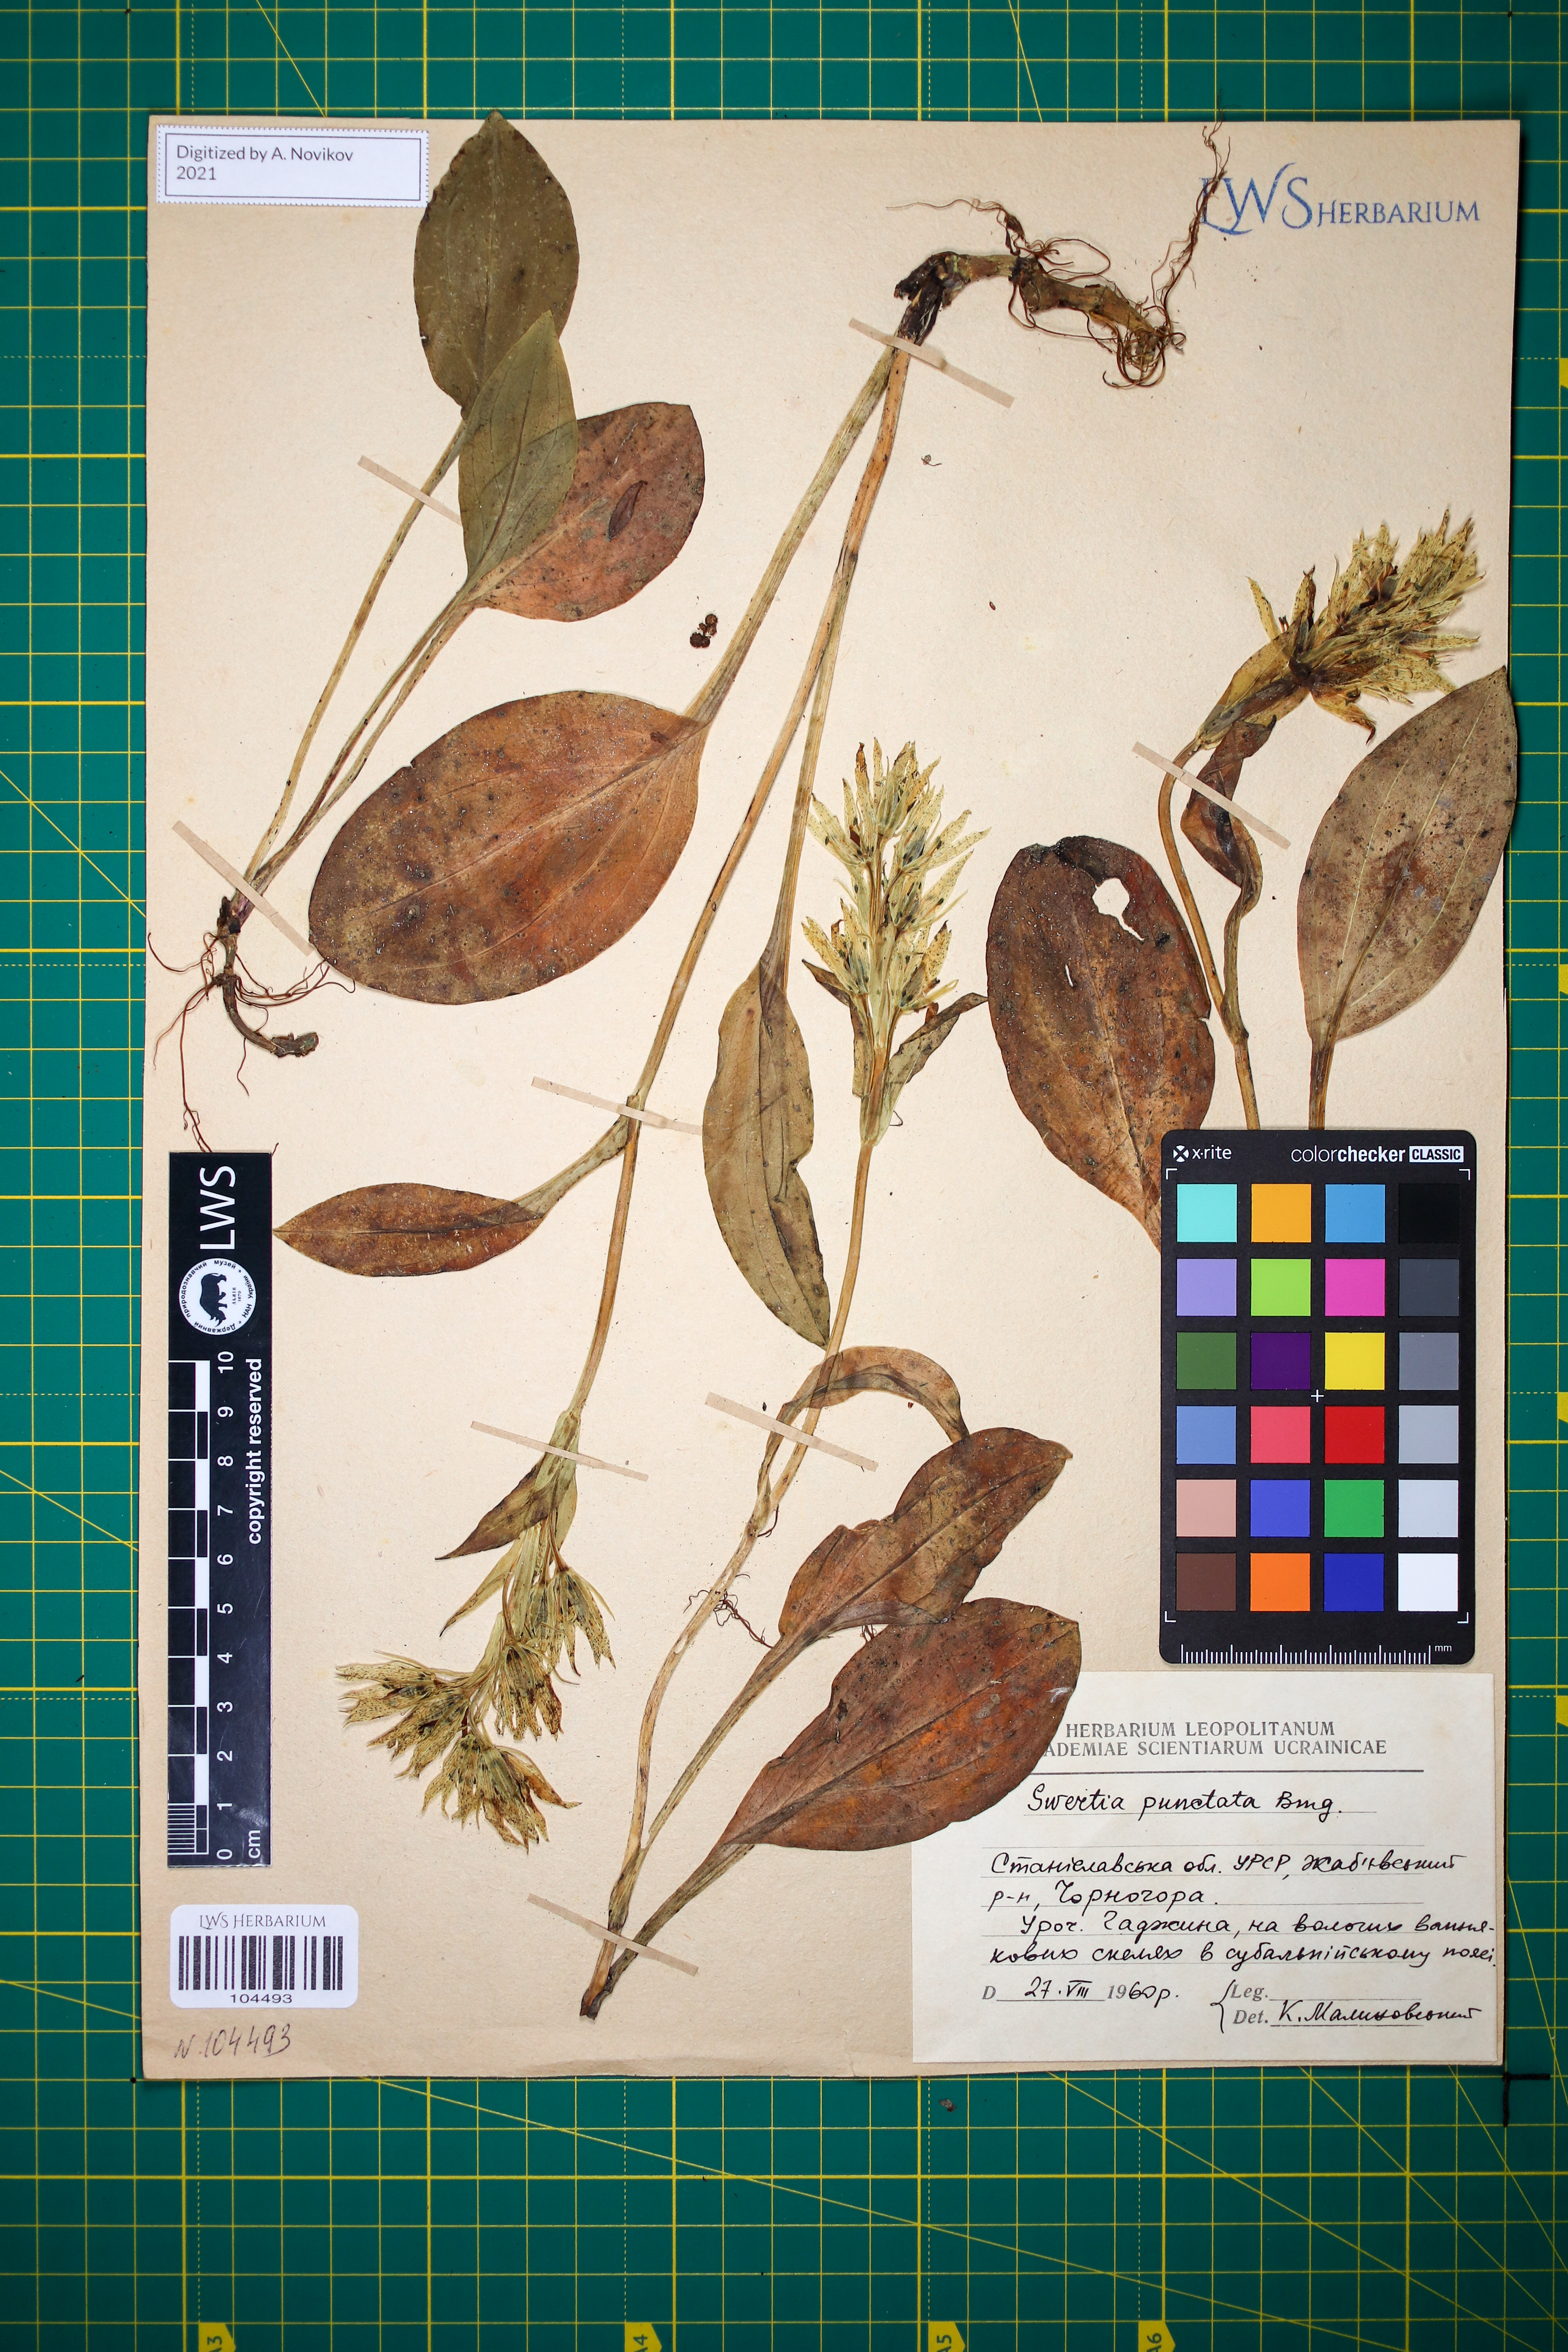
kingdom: Plantae
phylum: Tracheophyta
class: Magnoliopsida
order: Gentianales
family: Gentianaceae
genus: Swertia
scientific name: Swertia perennis
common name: Alpine bog swertia
